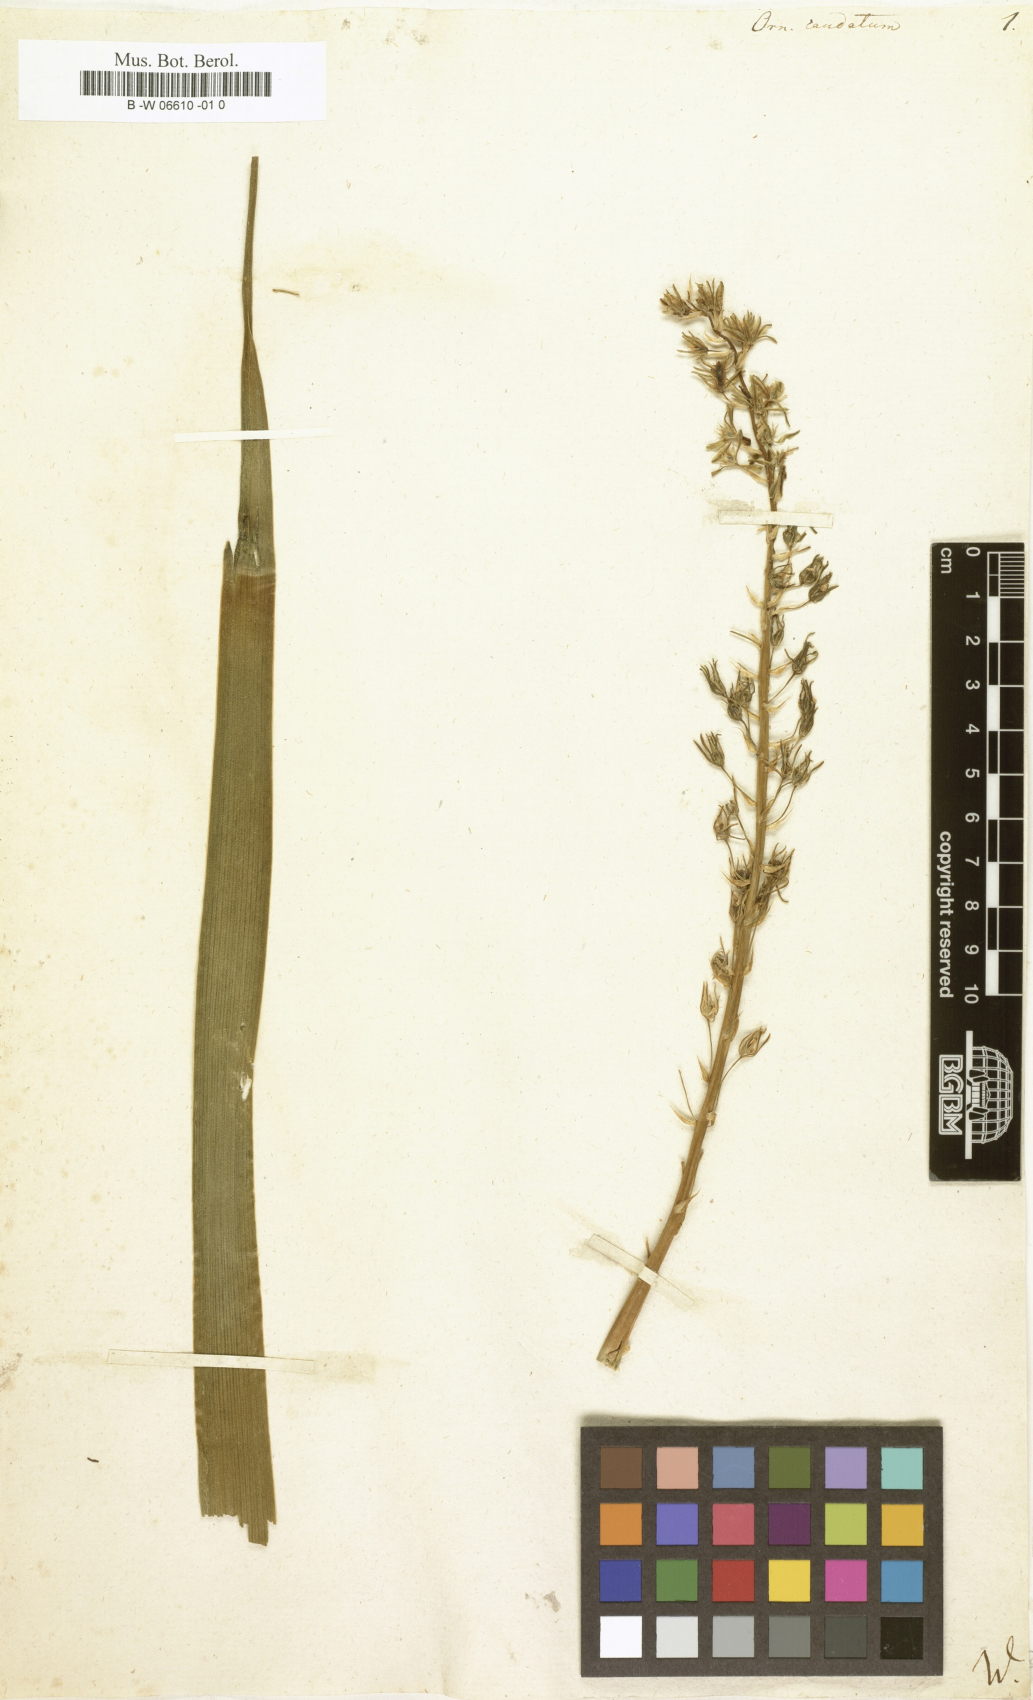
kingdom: Plantae
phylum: Tracheophyta
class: Liliopsida
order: Asparagales
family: Asparagaceae
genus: Albuca
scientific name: Albuca
